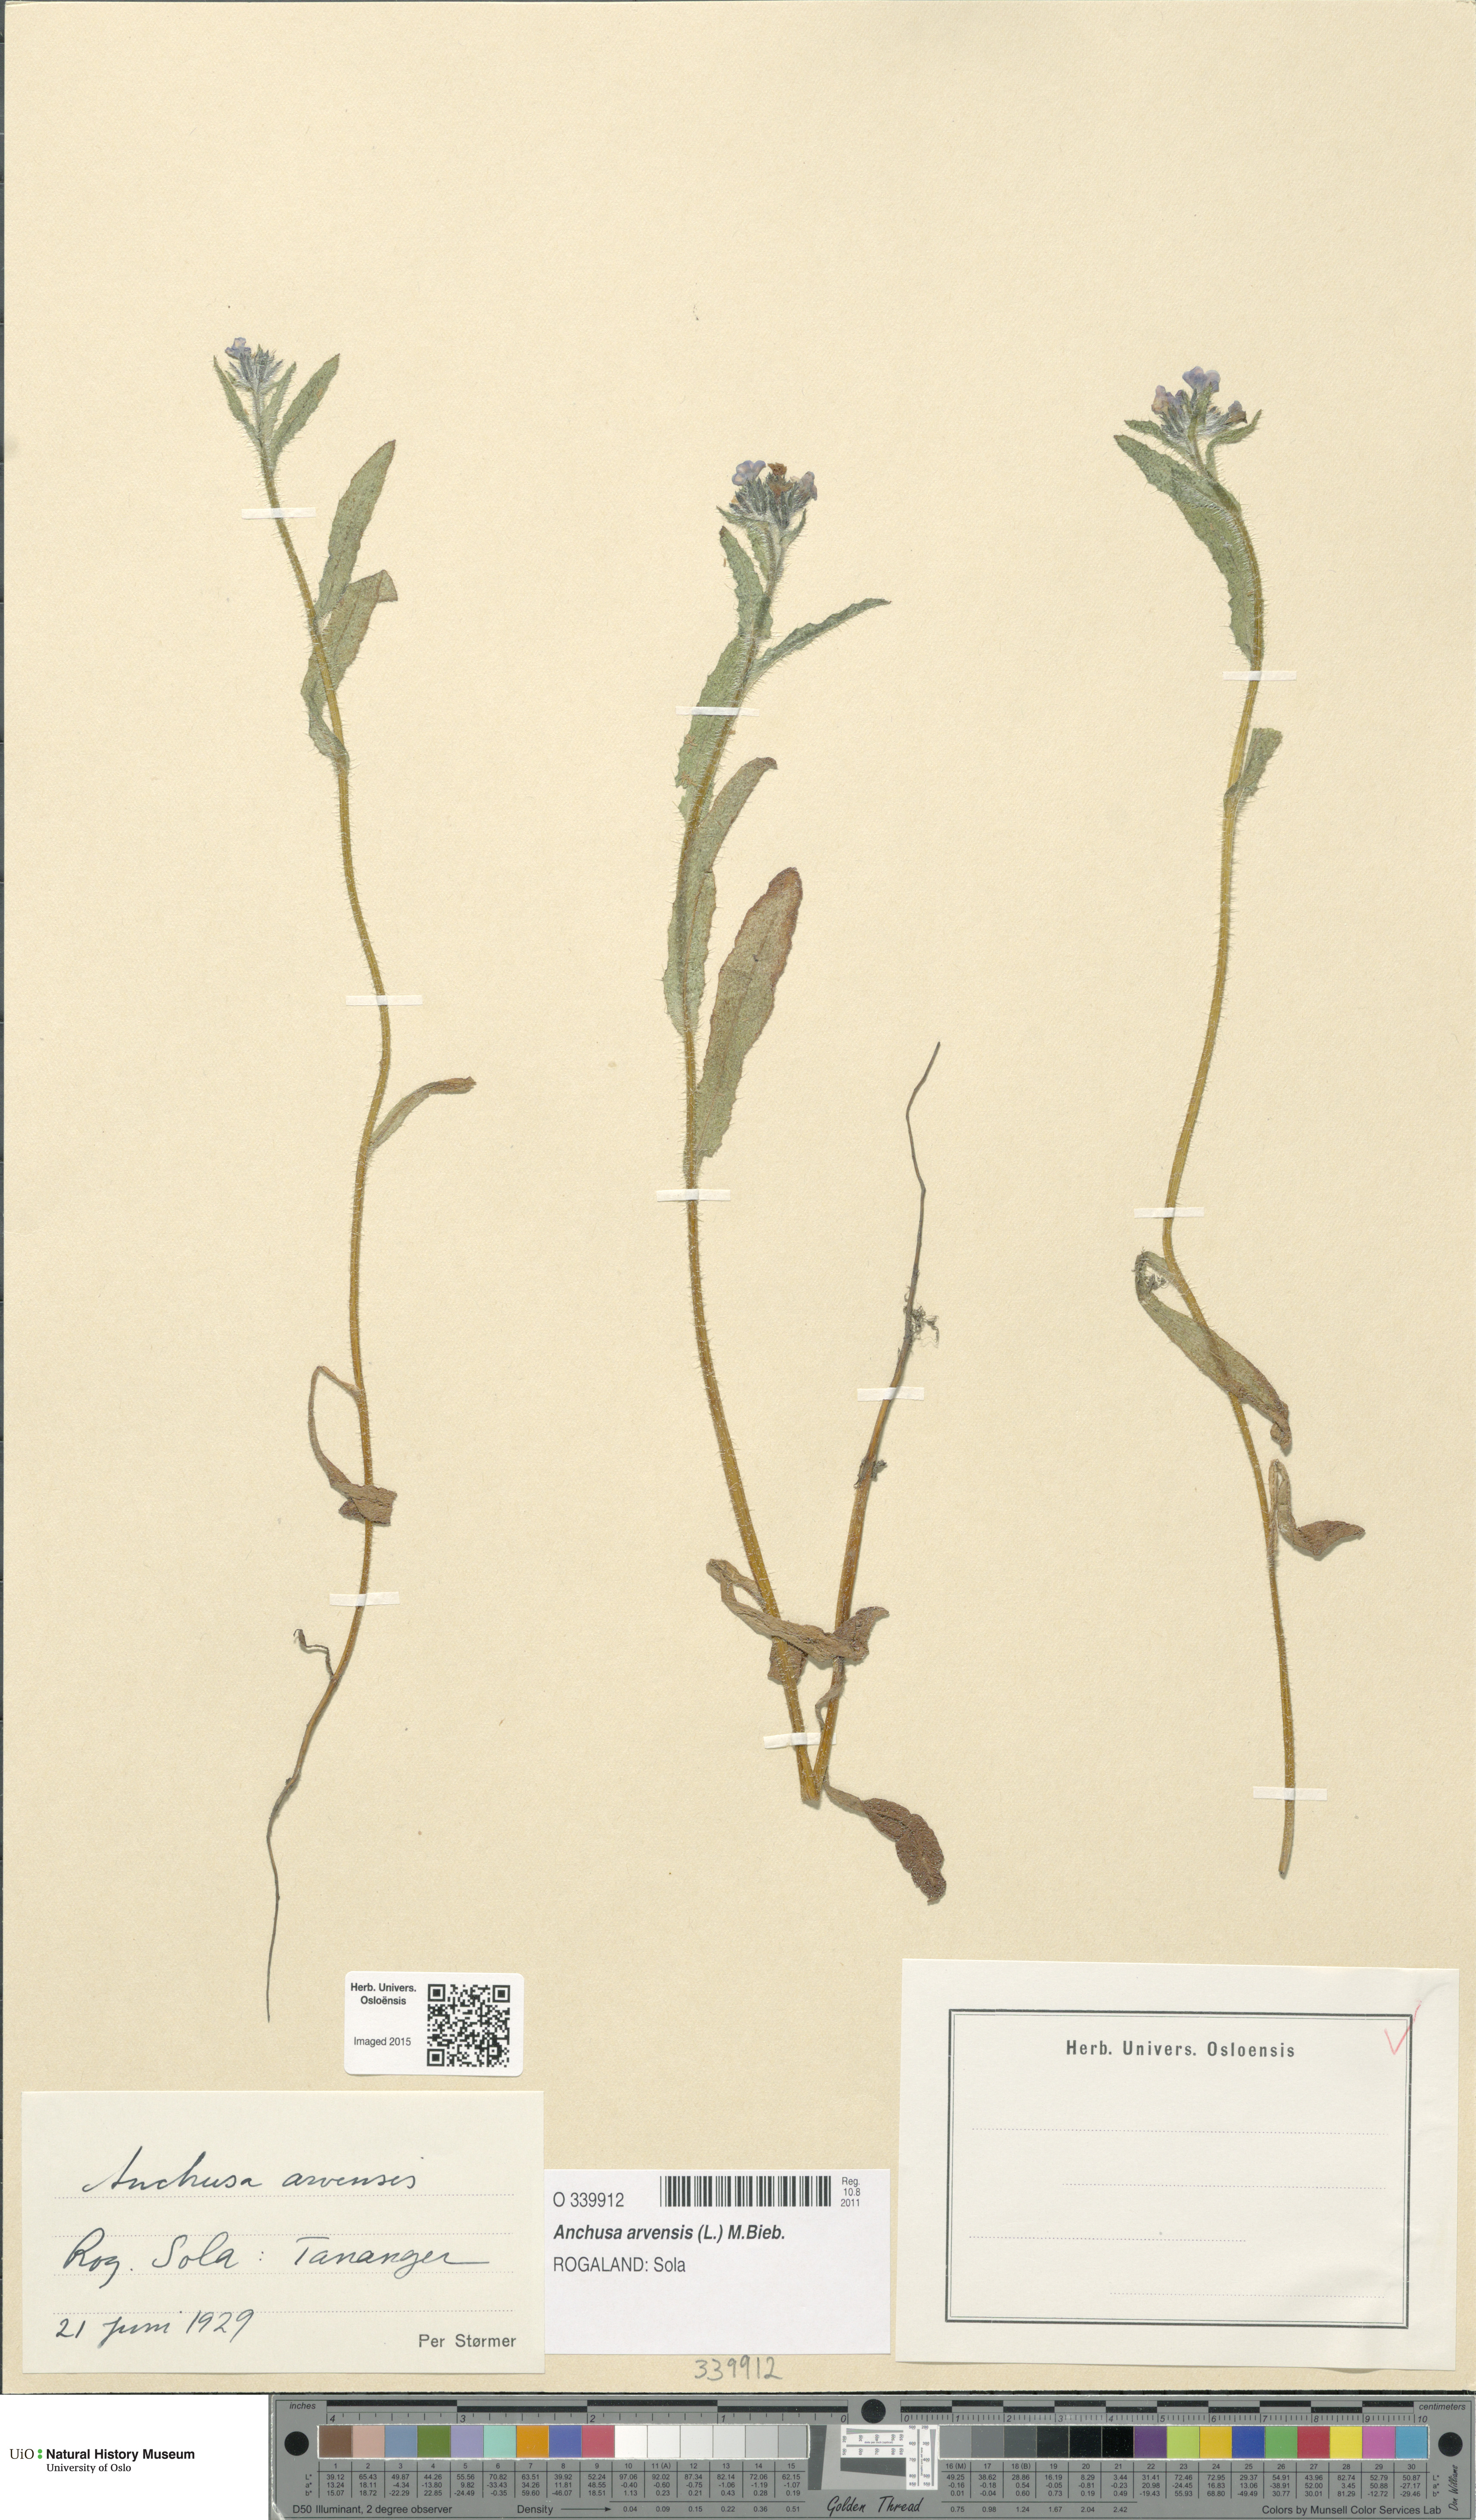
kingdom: Plantae
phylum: Tracheophyta
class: Magnoliopsida
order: Boraginales
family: Boraginaceae
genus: Lycopsis
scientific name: Lycopsis arvensis
